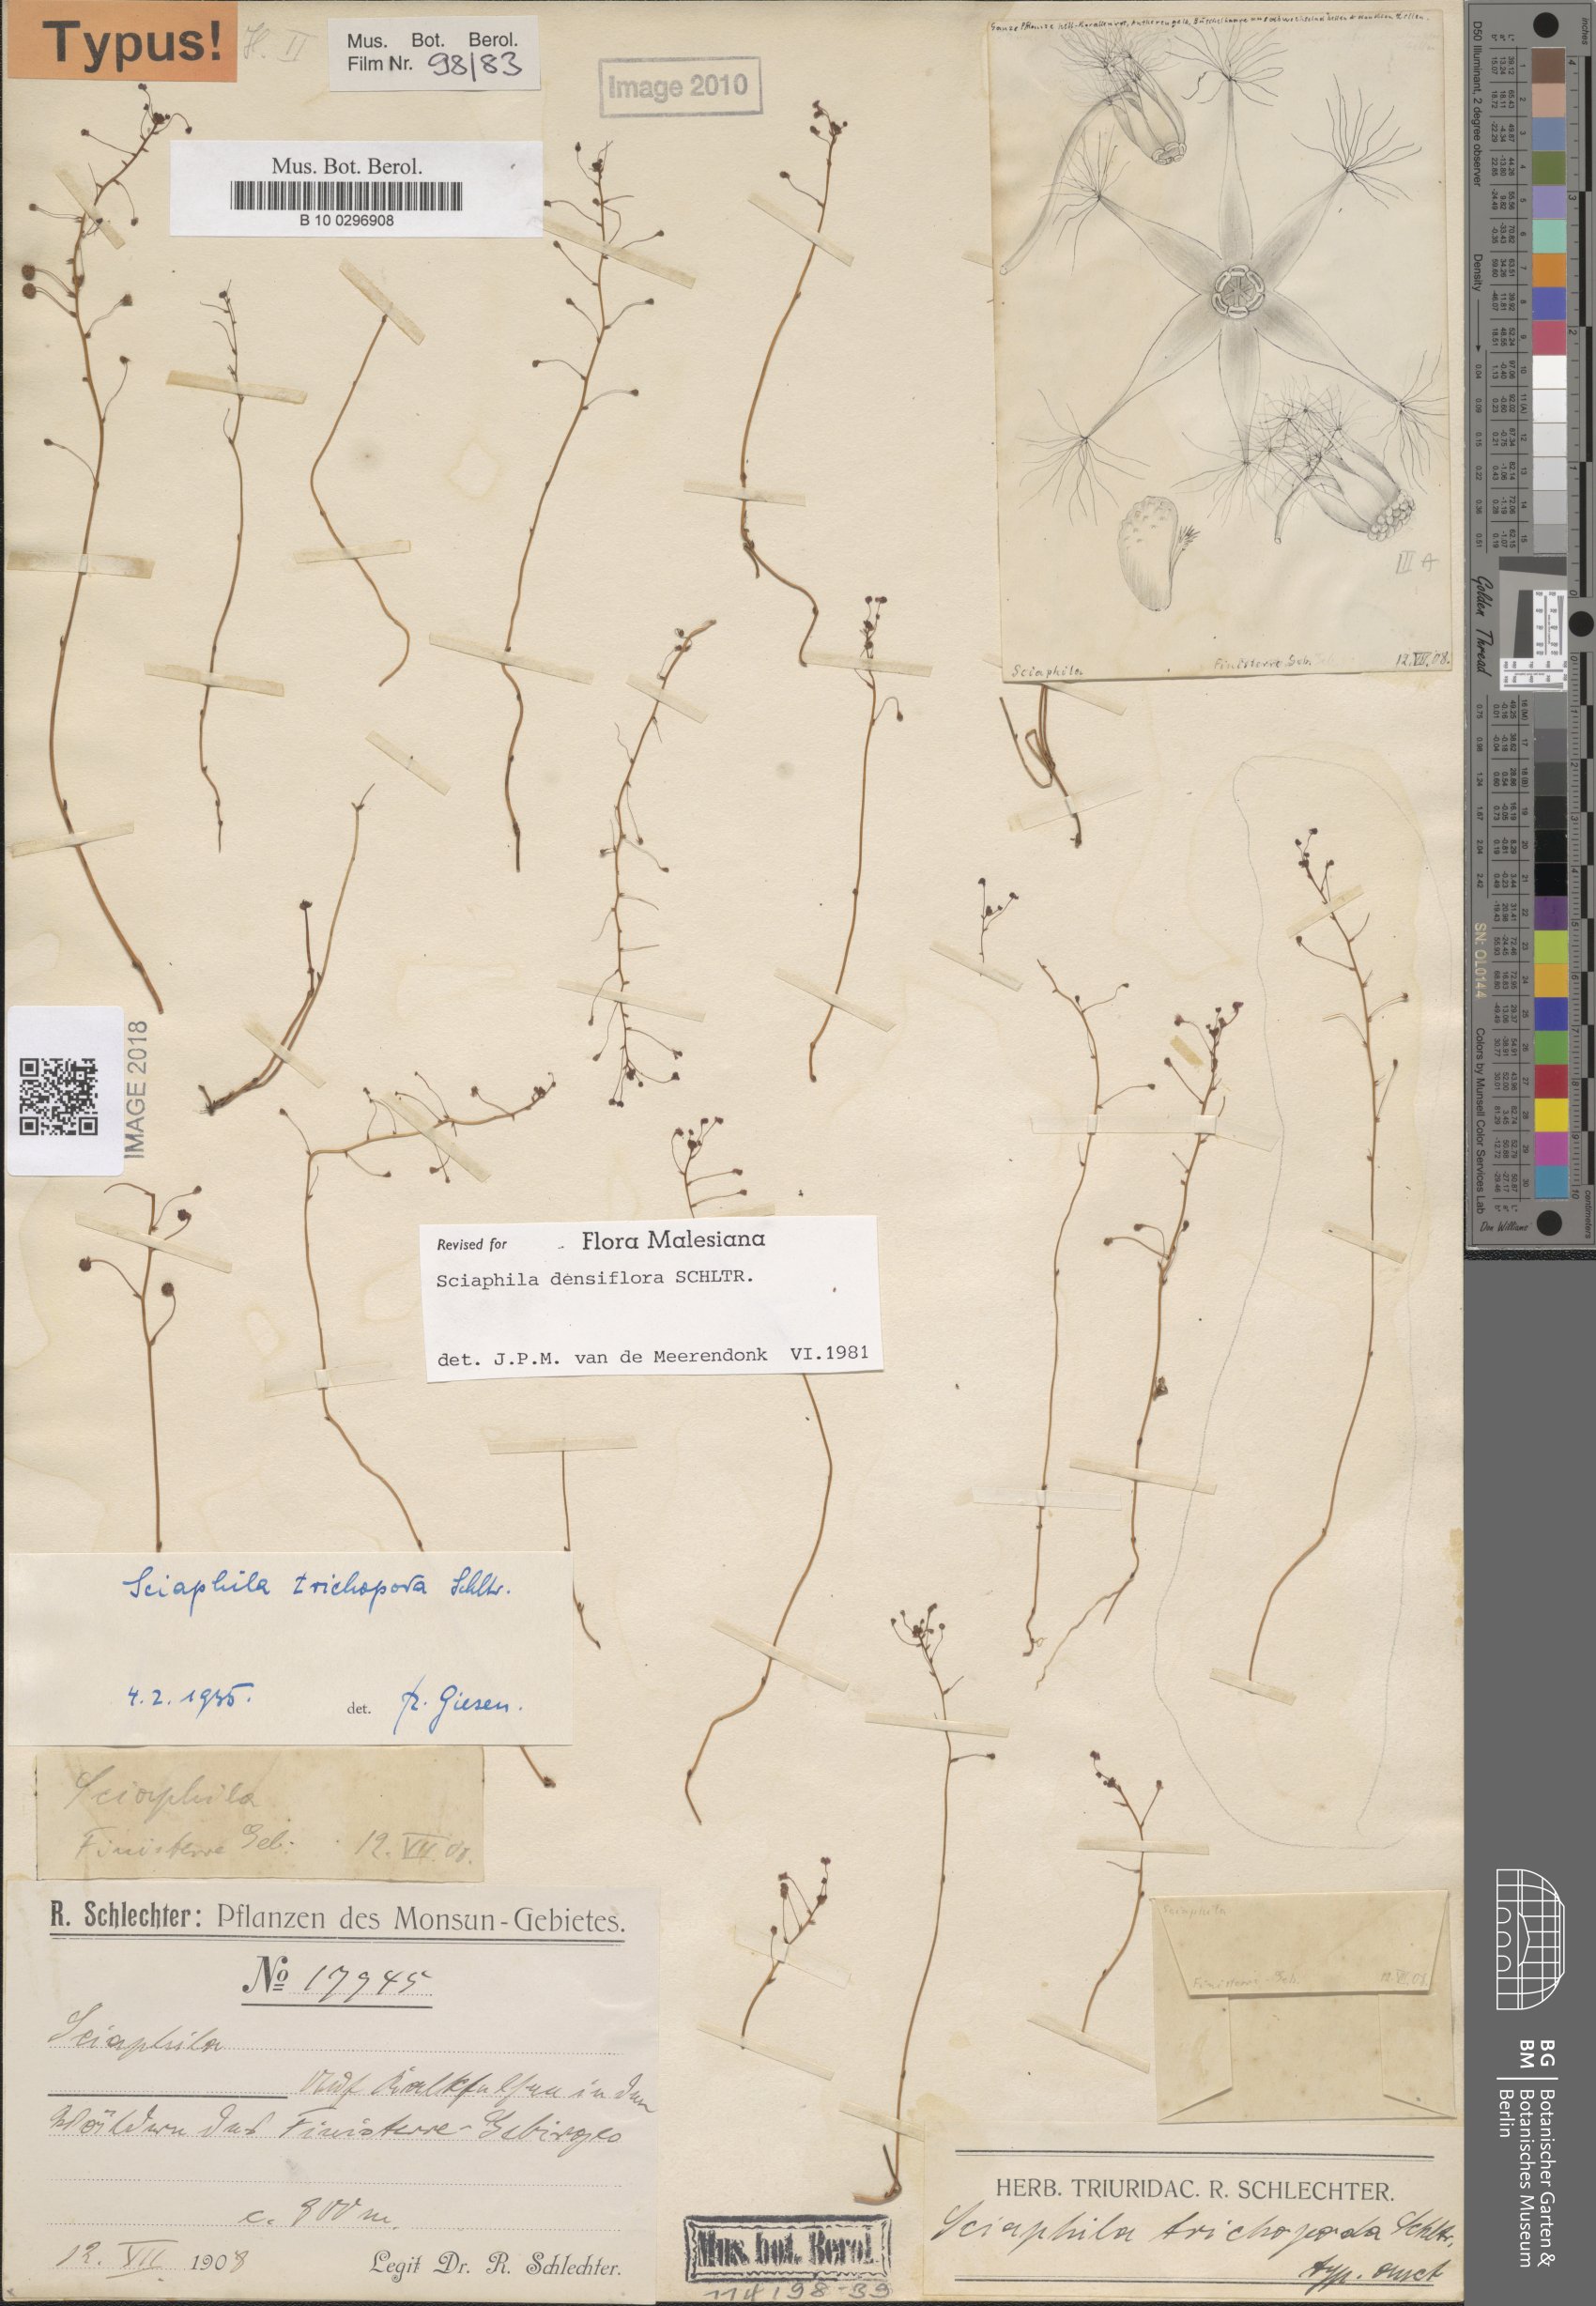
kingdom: Plantae
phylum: Tracheophyta
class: Liliopsida
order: Pandanales
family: Triuridaceae
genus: Sciaphila
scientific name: Sciaphila densiflora
